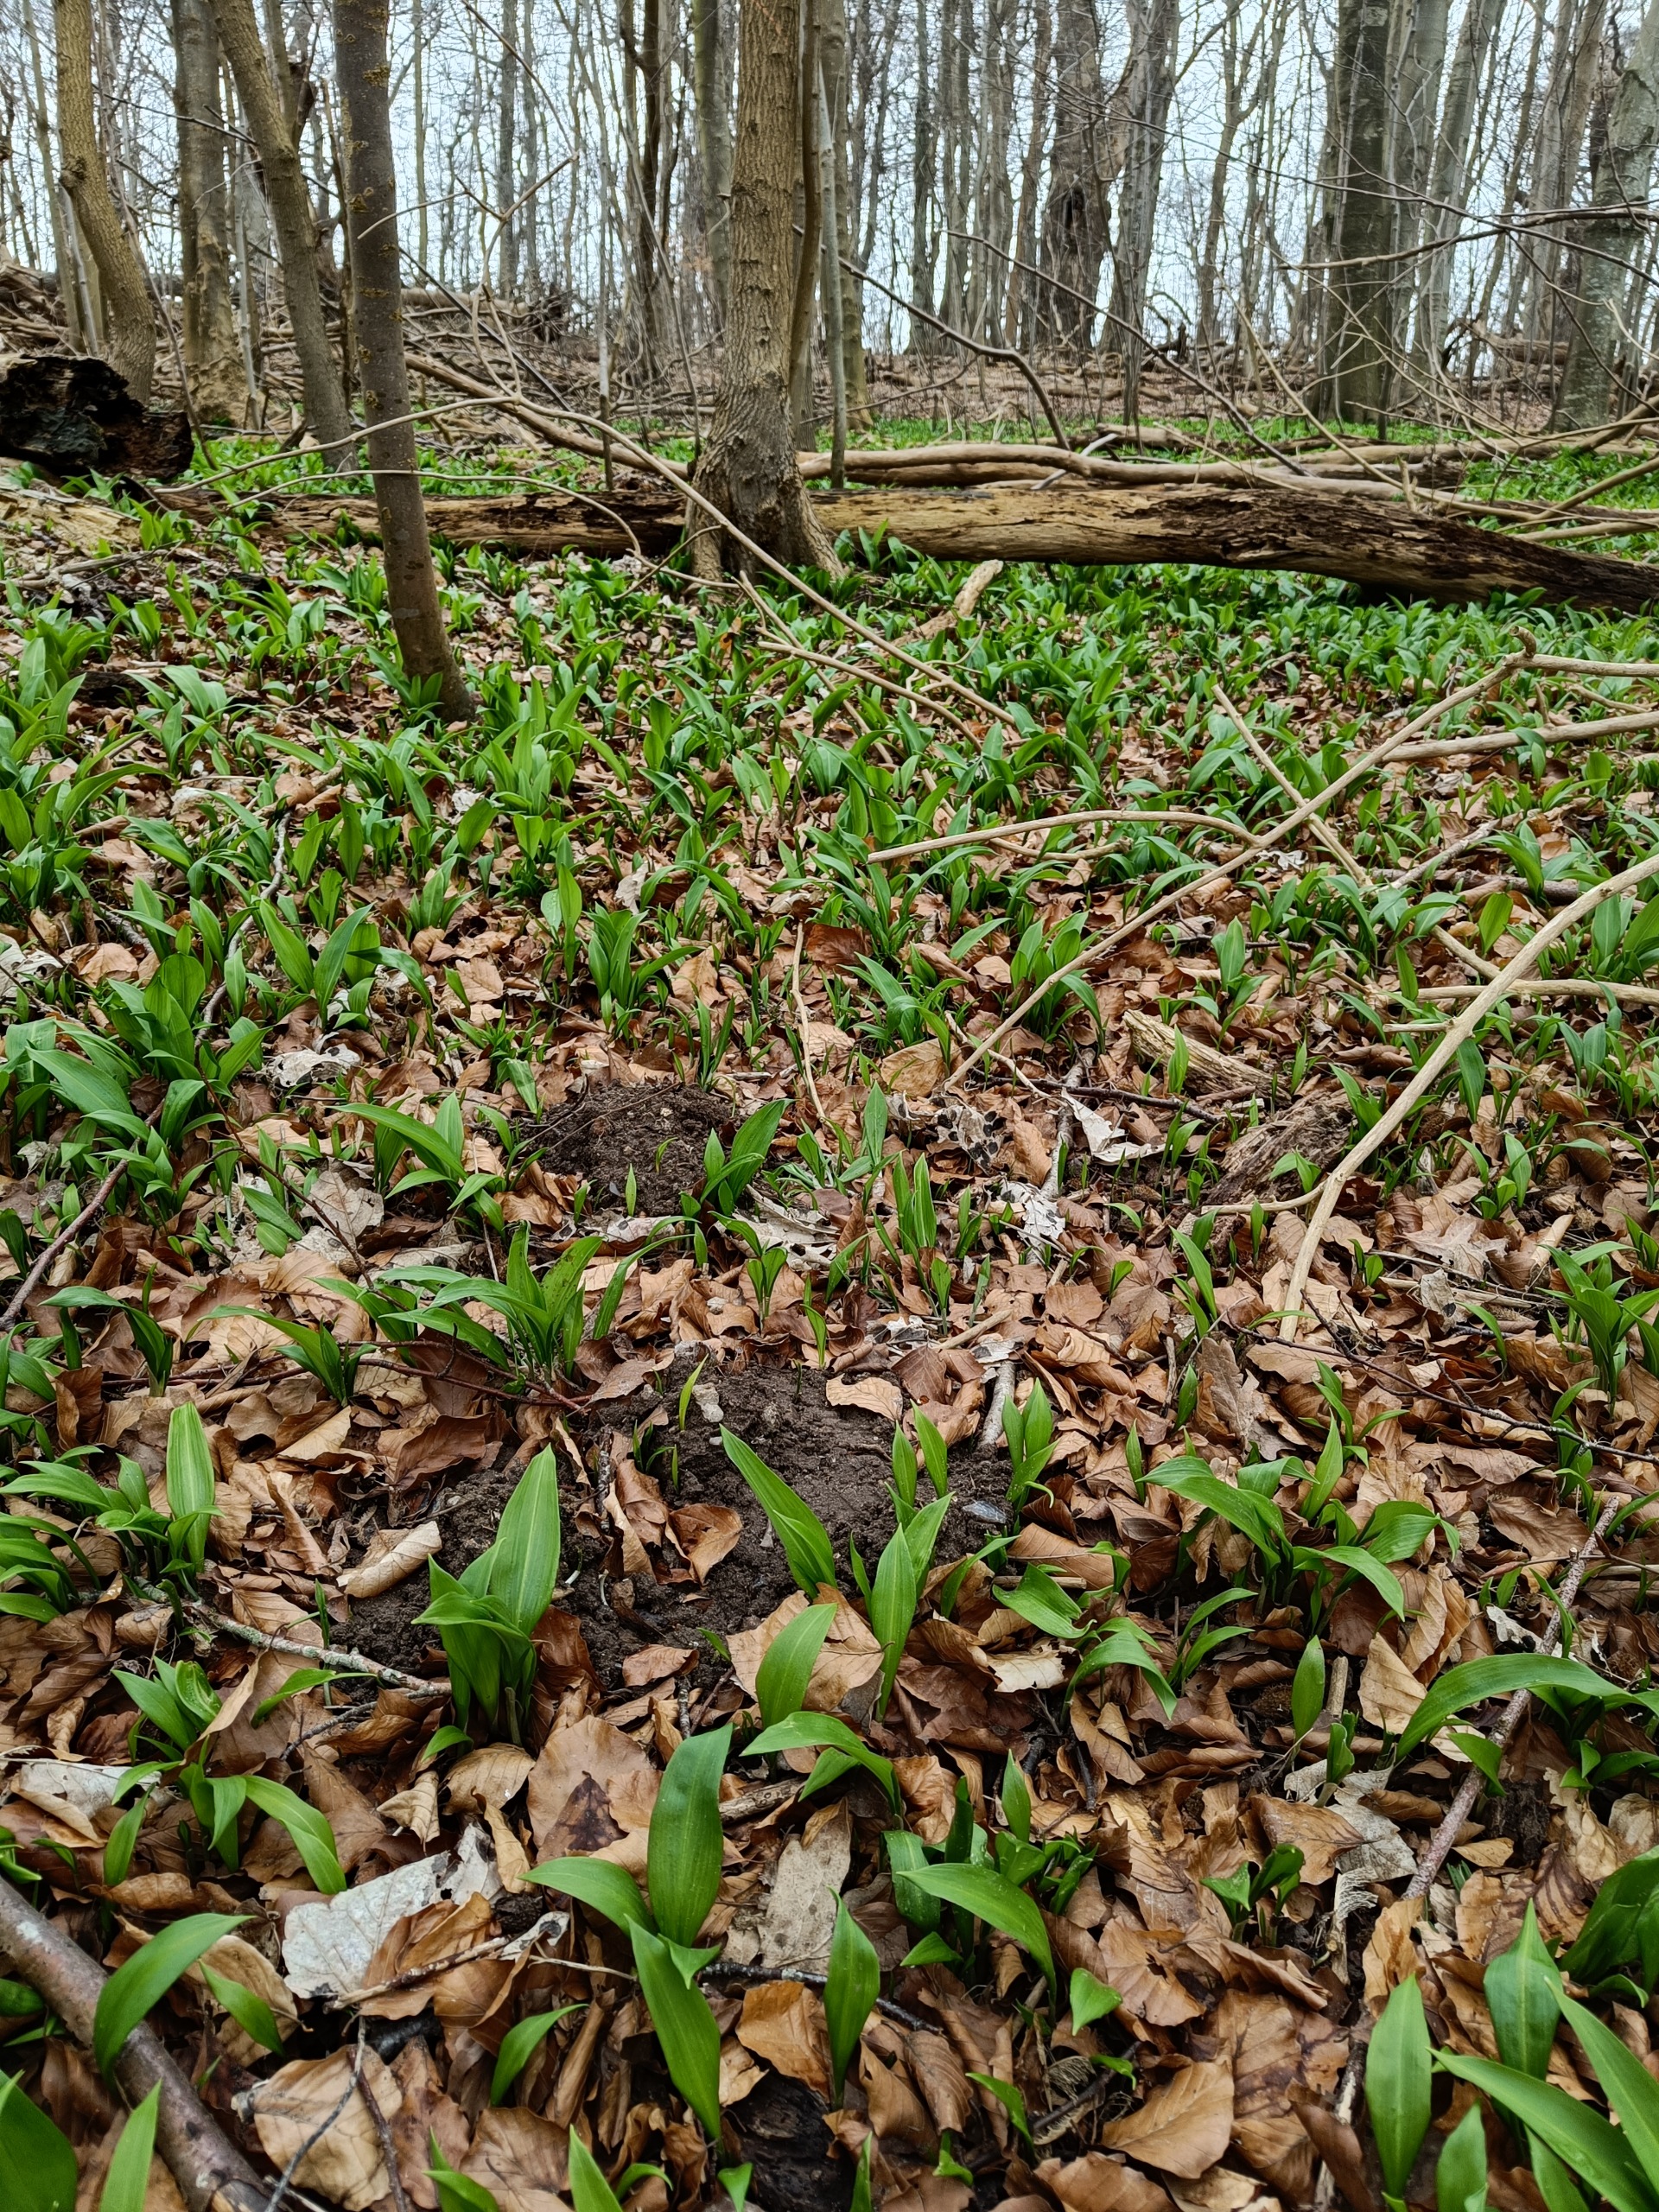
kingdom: Plantae
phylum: Tracheophyta
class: Liliopsida
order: Asparagales
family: Amaryllidaceae
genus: Allium
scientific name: Allium ursinum
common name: Rams-løg
